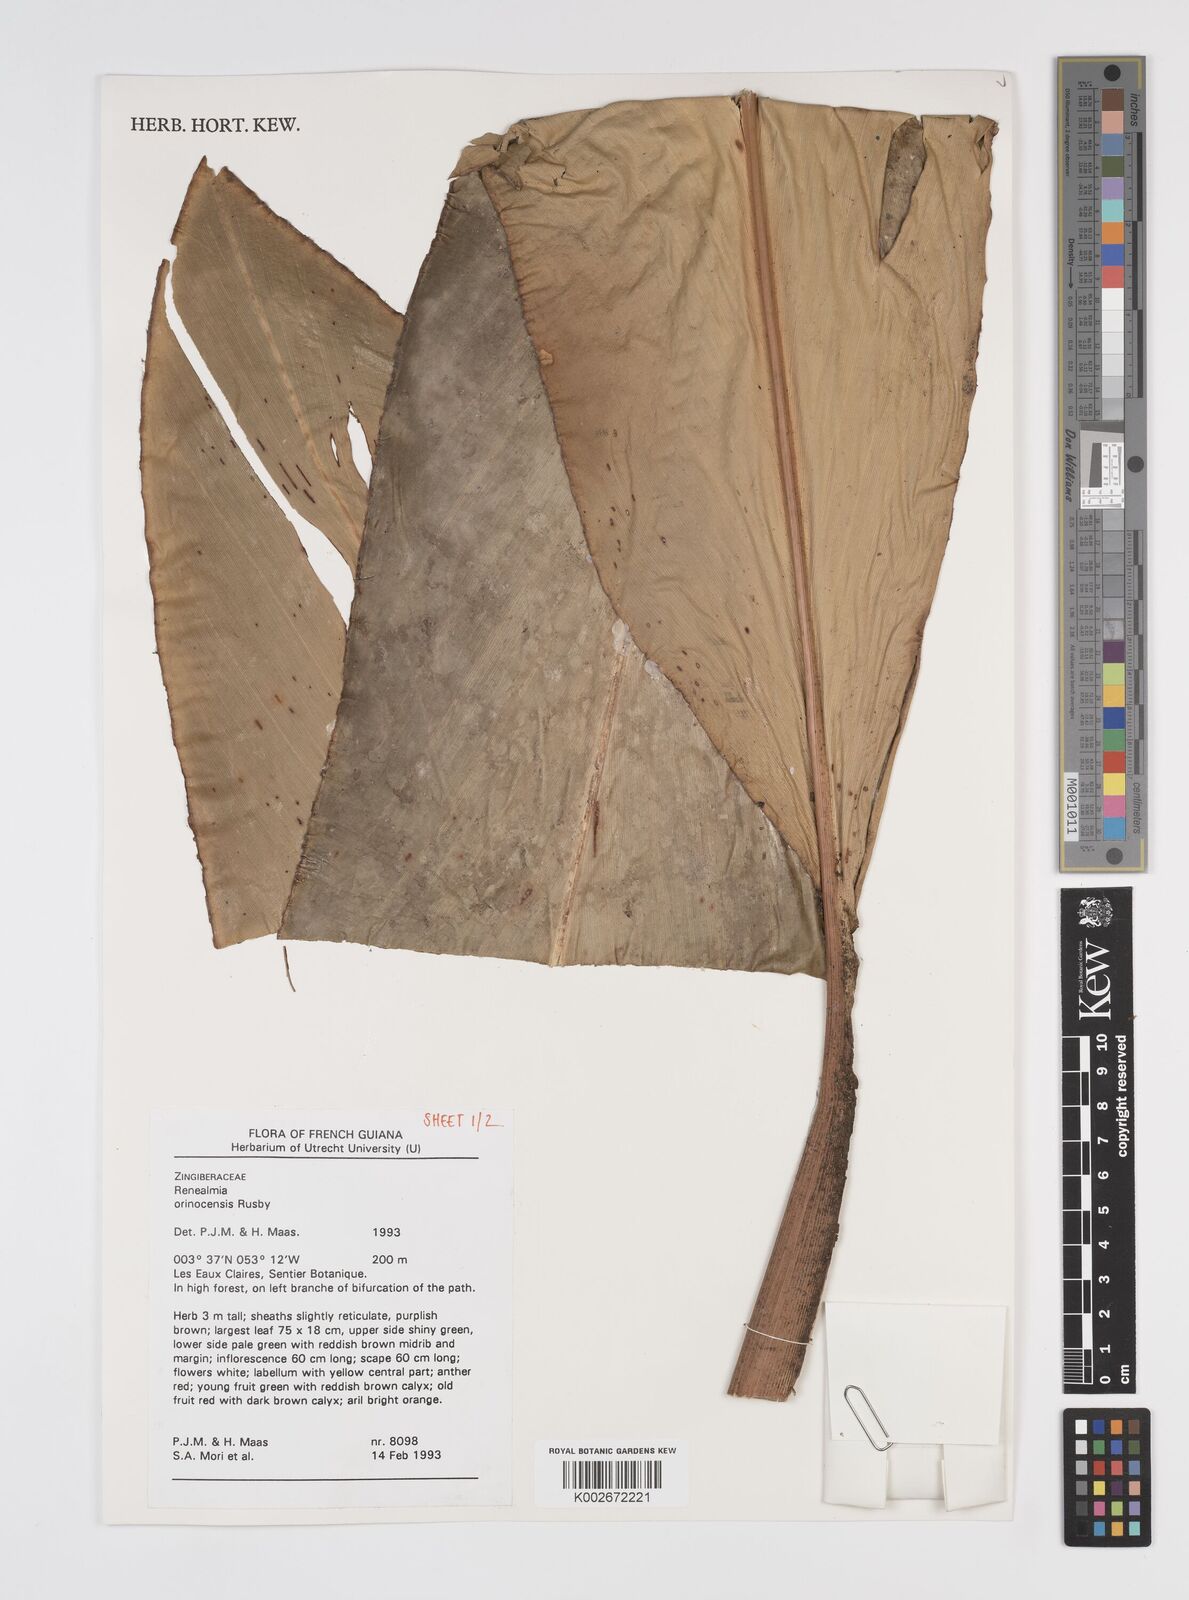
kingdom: Plantae
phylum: Tracheophyta
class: Liliopsida
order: Zingiberales
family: Zingiberaceae
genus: Renealmia
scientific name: Renealmia orinocensis
